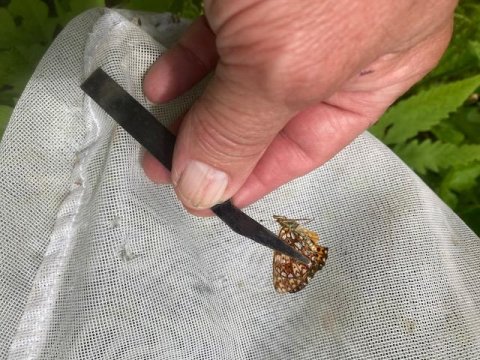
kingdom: Animalia
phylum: Arthropoda
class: Insecta
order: Lepidoptera
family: Nymphalidae
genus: Boloria
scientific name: Boloria selene
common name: Silver-bordered Fritillary
